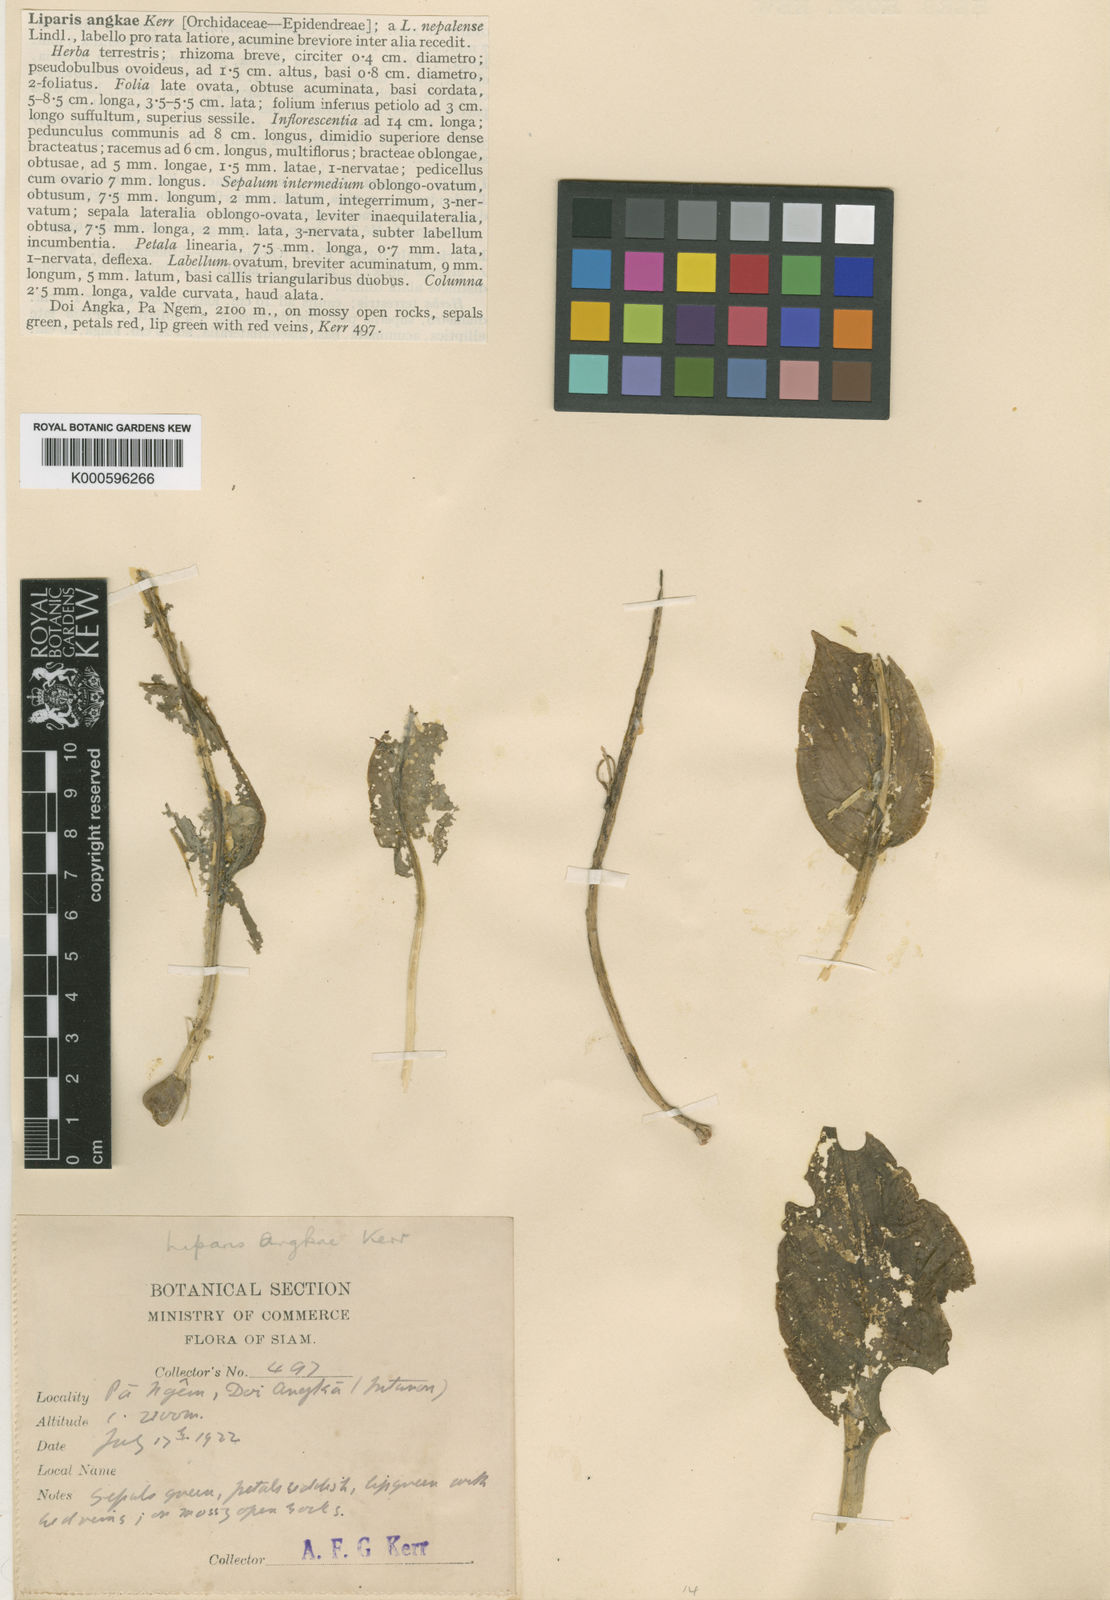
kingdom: Plantae
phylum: Tracheophyta
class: Liliopsida
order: Asparagales
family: Orchidaceae
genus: Liparis
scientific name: Liparis petiolata
